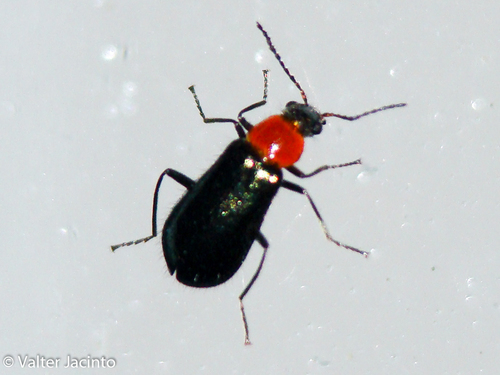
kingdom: Animalia
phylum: Arthropoda
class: Insecta
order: Coleoptera
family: Malachiidae
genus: Attalus
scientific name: Attalus lusitanicus
